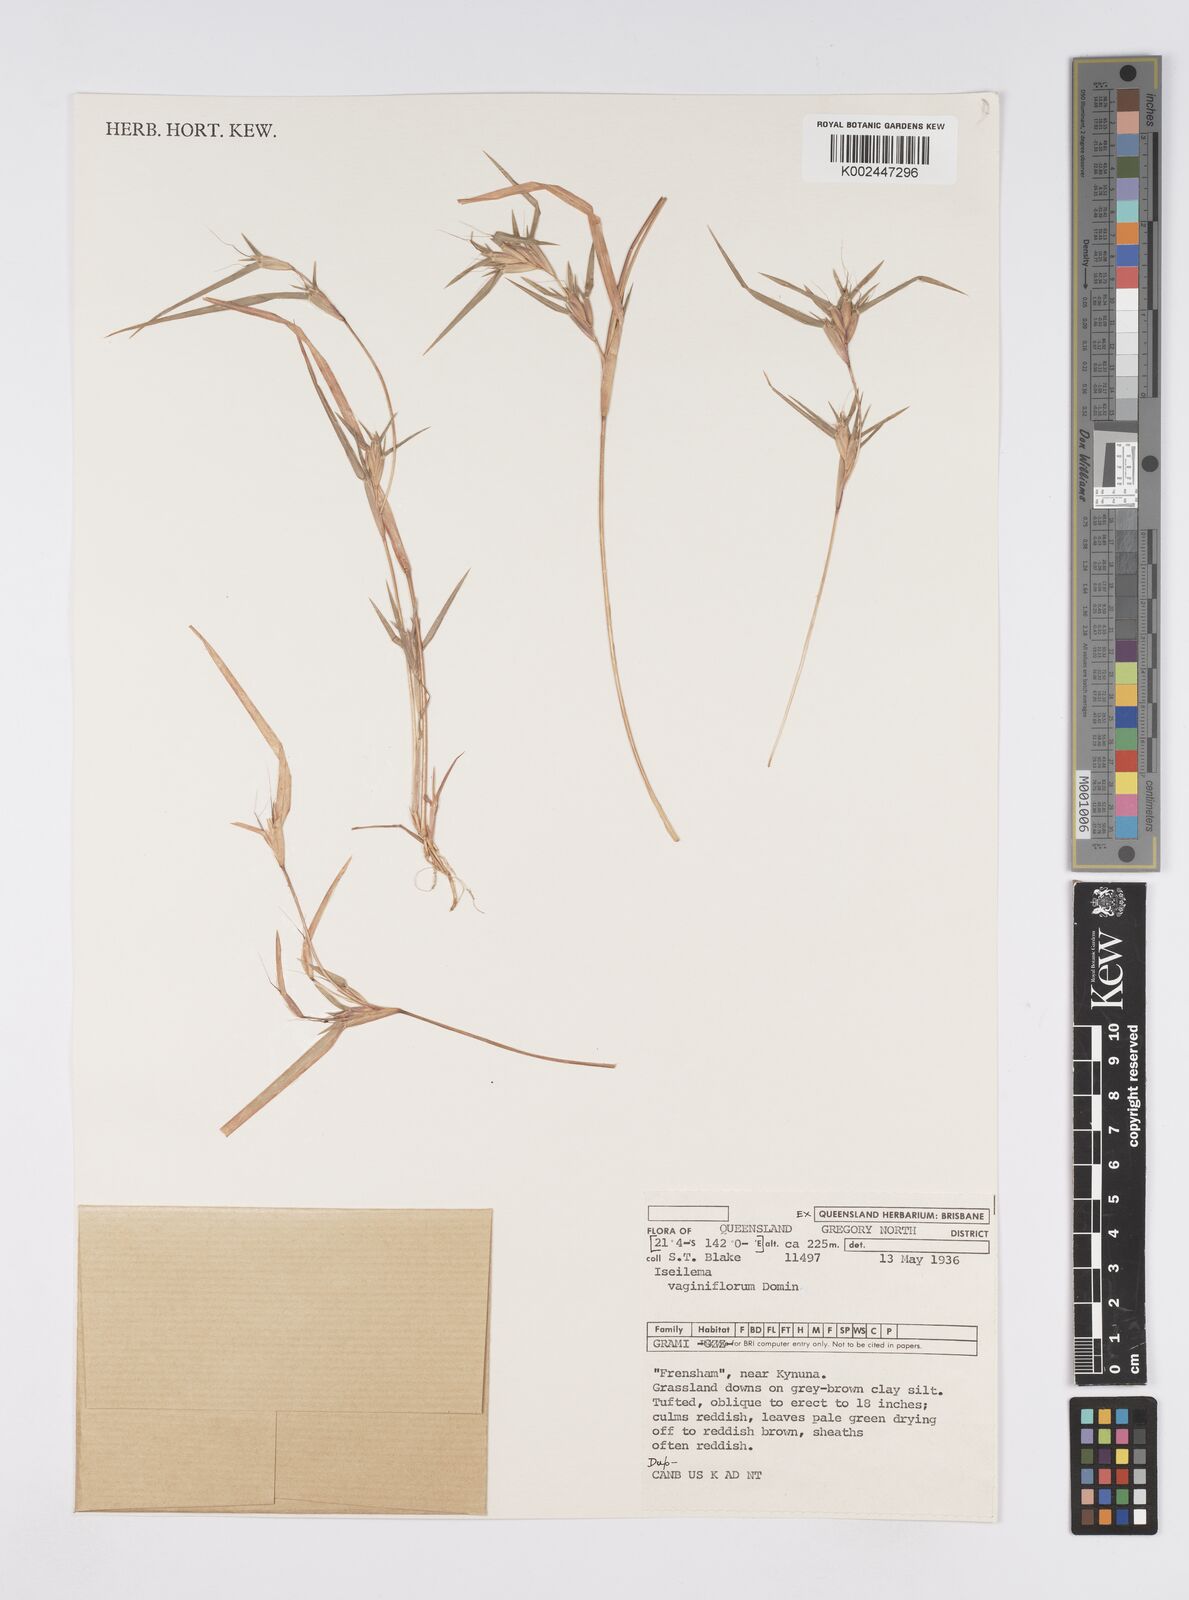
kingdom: Plantae
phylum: Tracheophyta
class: Liliopsida
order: Poales
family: Poaceae
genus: Iseilema
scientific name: Iseilema vaginiflorum
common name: Red flinders grass
